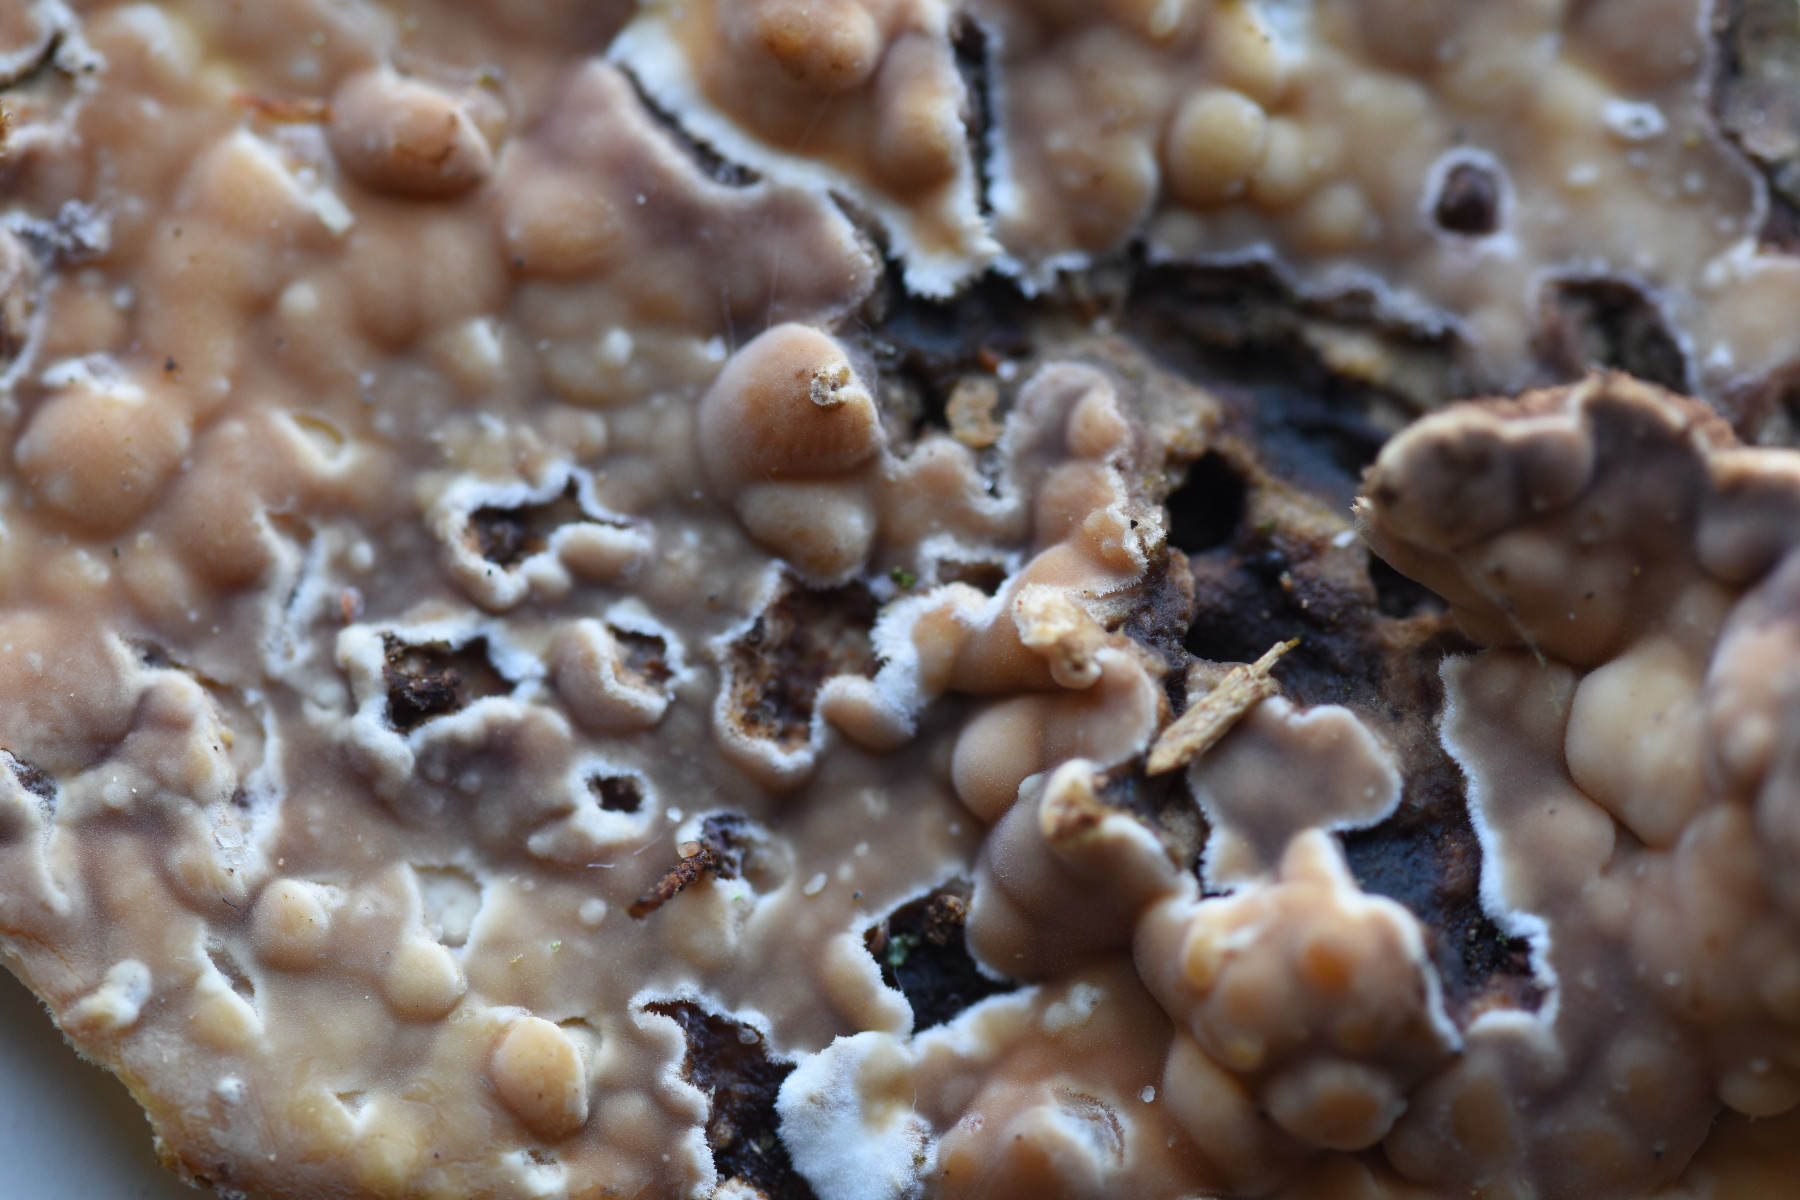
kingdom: Fungi
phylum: Basidiomycota
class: Agaricomycetes
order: Polyporales
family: Dacryobolaceae
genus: Dacryobolus
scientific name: Dacryobolus karstenii
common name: glat vulkanskorpe
